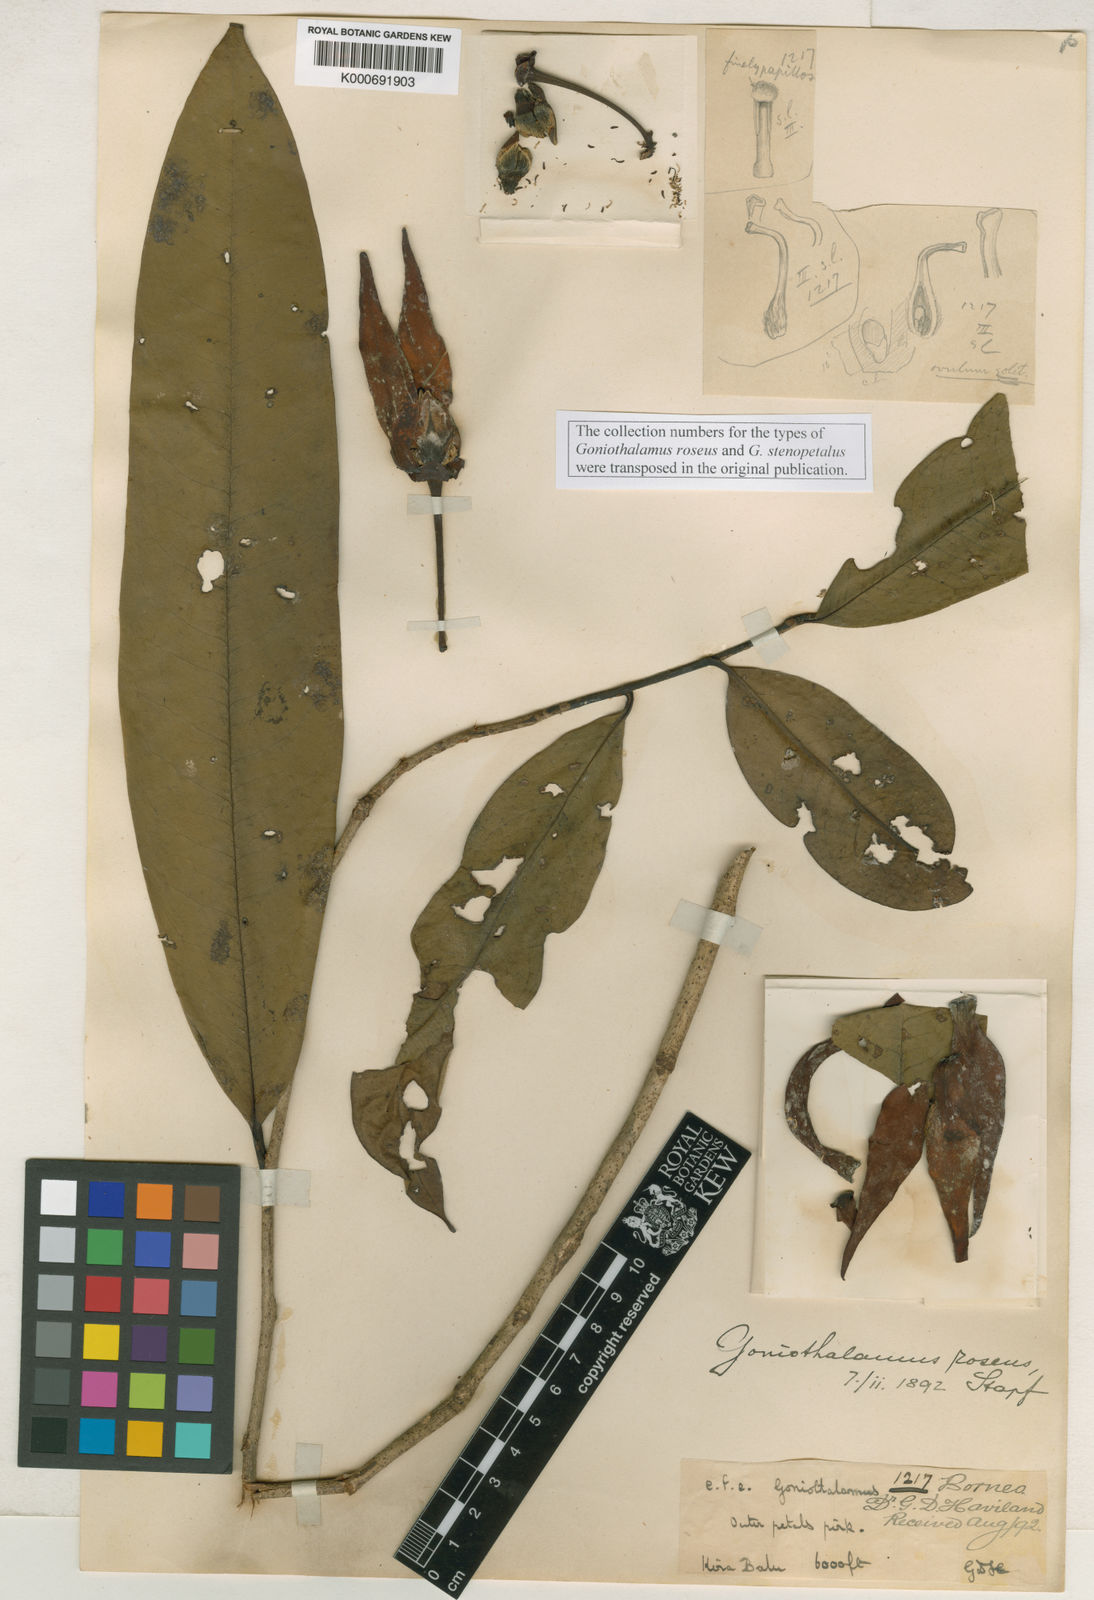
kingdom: Plantae
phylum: Tracheophyta
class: Magnoliopsida
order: Magnoliales
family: Annonaceae
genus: Goniothalamus
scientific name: Goniothalamus roseus
